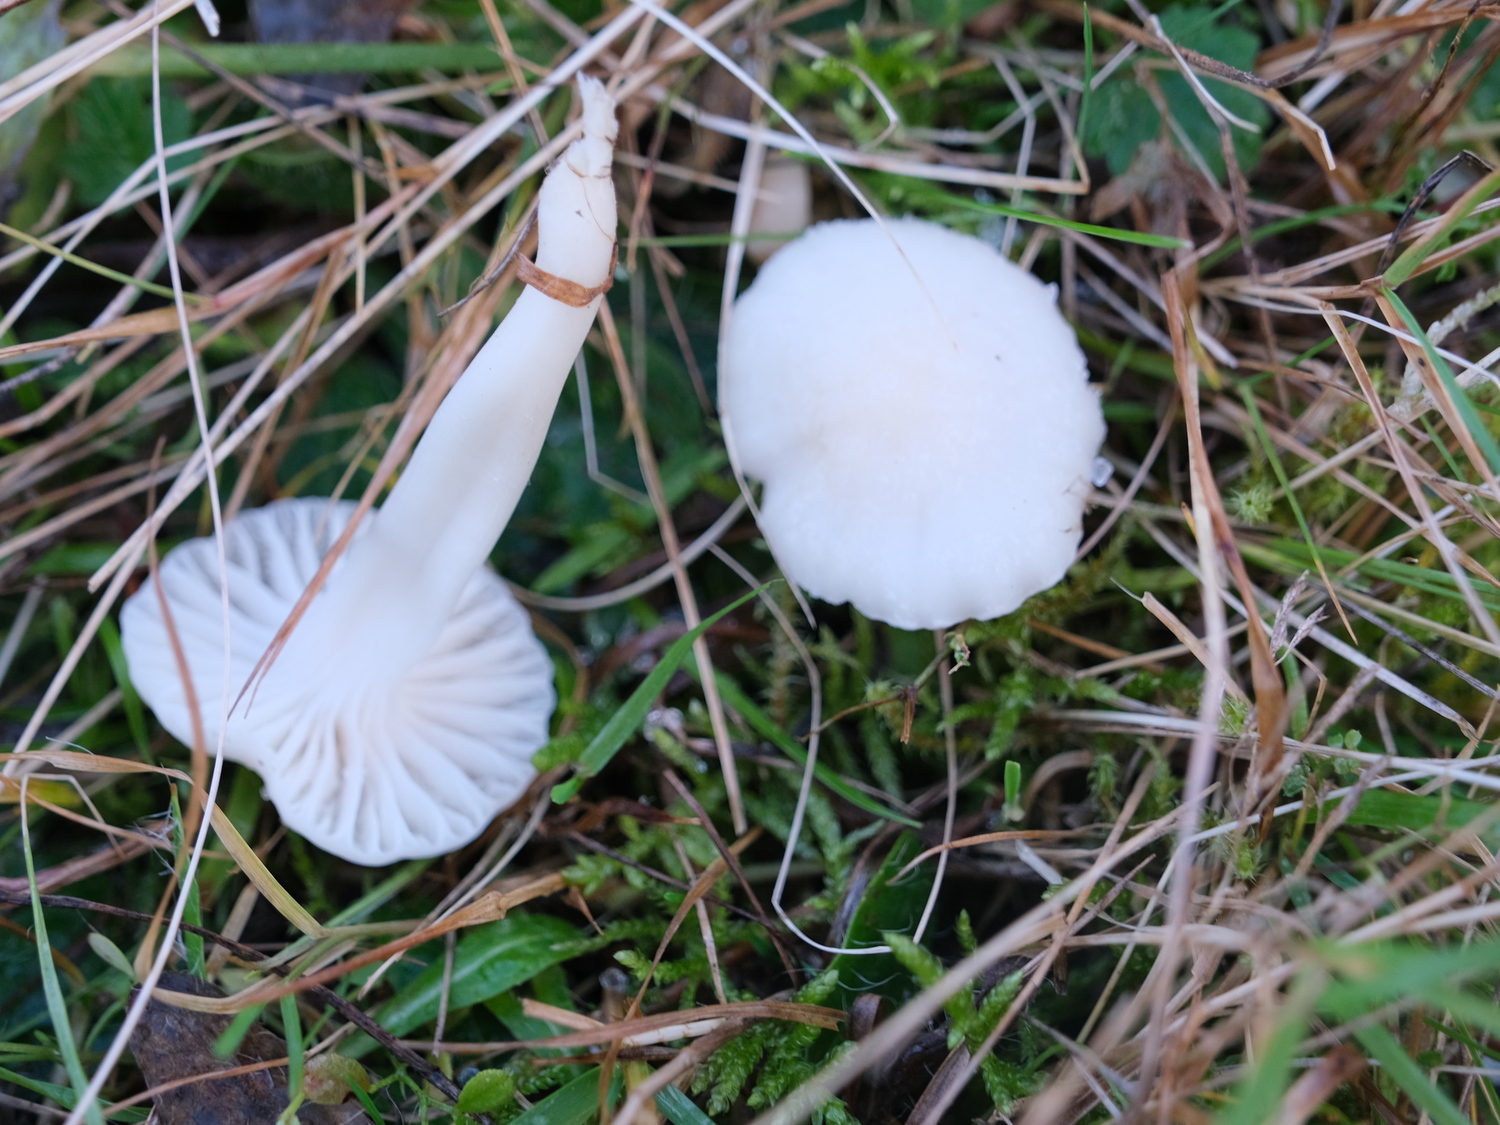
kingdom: Fungi
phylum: Basidiomycota
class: Agaricomycetes
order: Agaricales
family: Hygrophoraceae
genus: Cuphophyllus
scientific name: Cuphophyllus virgineus
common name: snehvid vokshat
